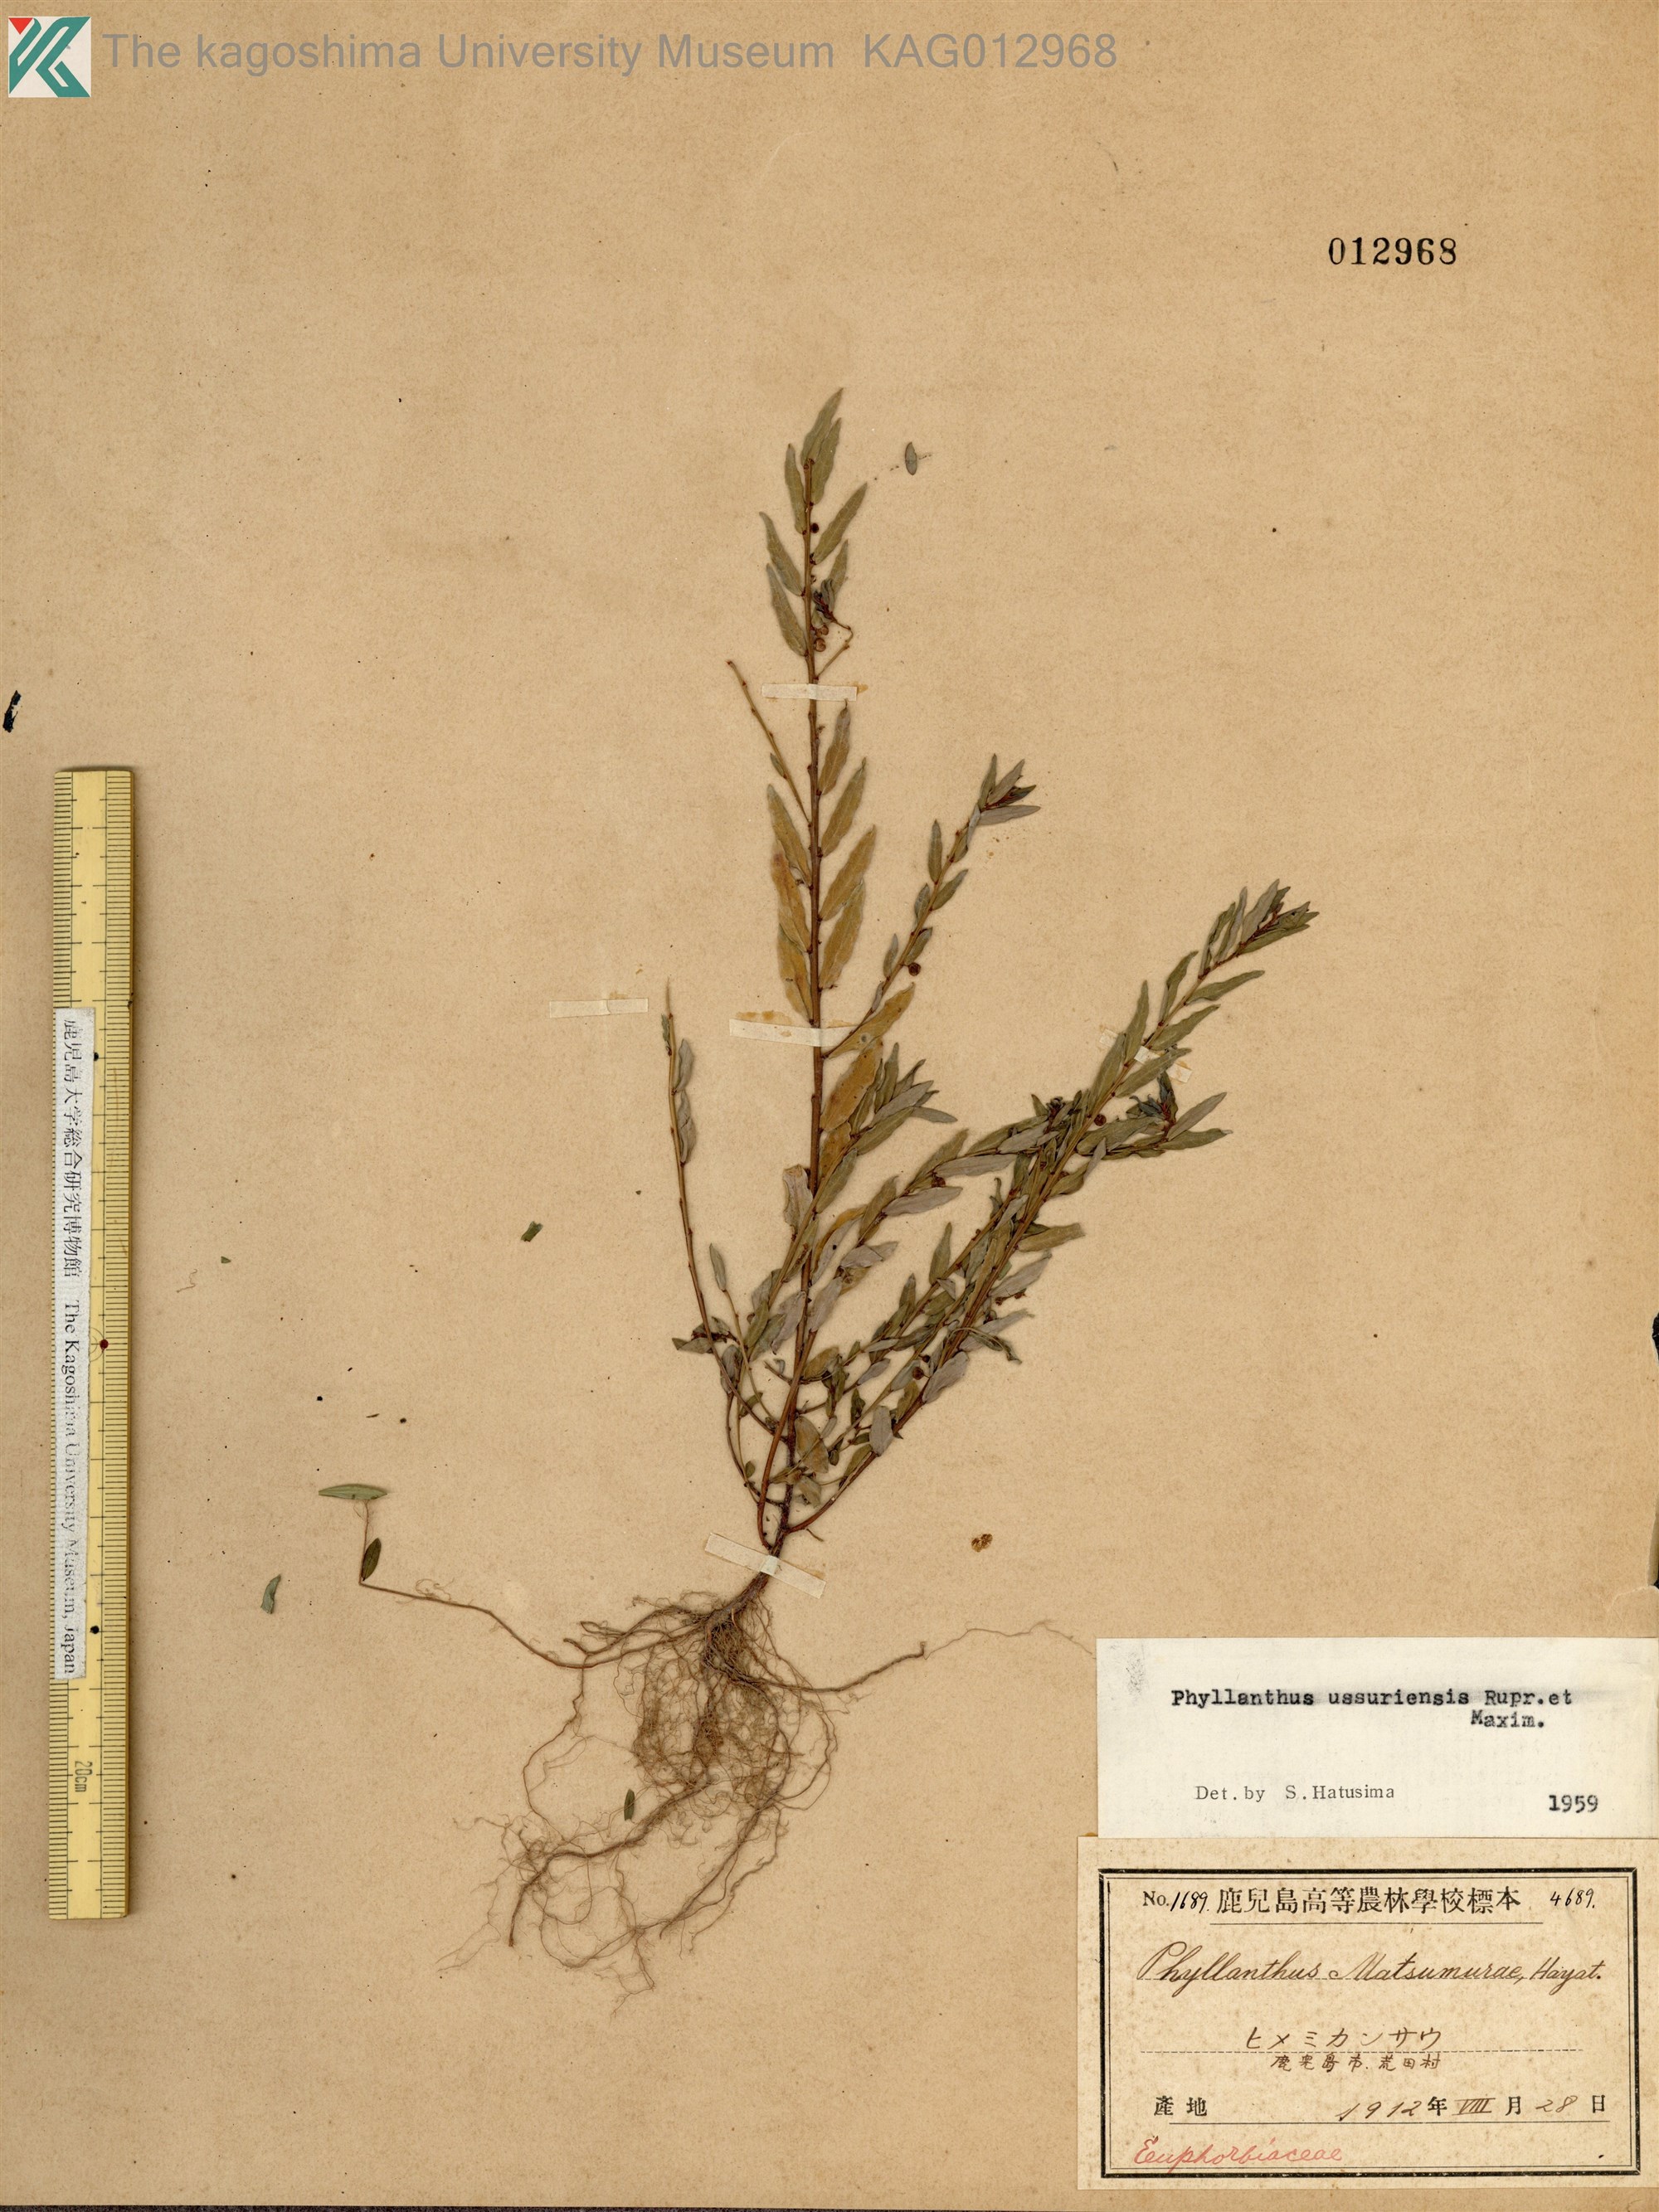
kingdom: Plantae
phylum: Tracheophyta
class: Magnoliopsida
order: Malpighiales
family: Phyllanthaceae
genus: Phyllanthus
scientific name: Phyllanthus ussuriensis
